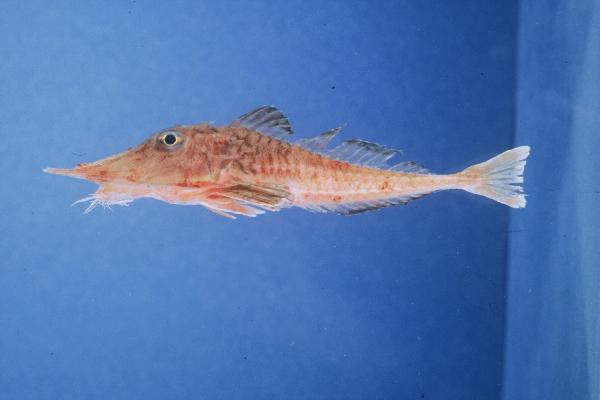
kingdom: Animalia
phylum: Chordata
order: Scorpaeniformes
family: Peristediidae
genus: Satyrichthys
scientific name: Satyrichthys laticeps
